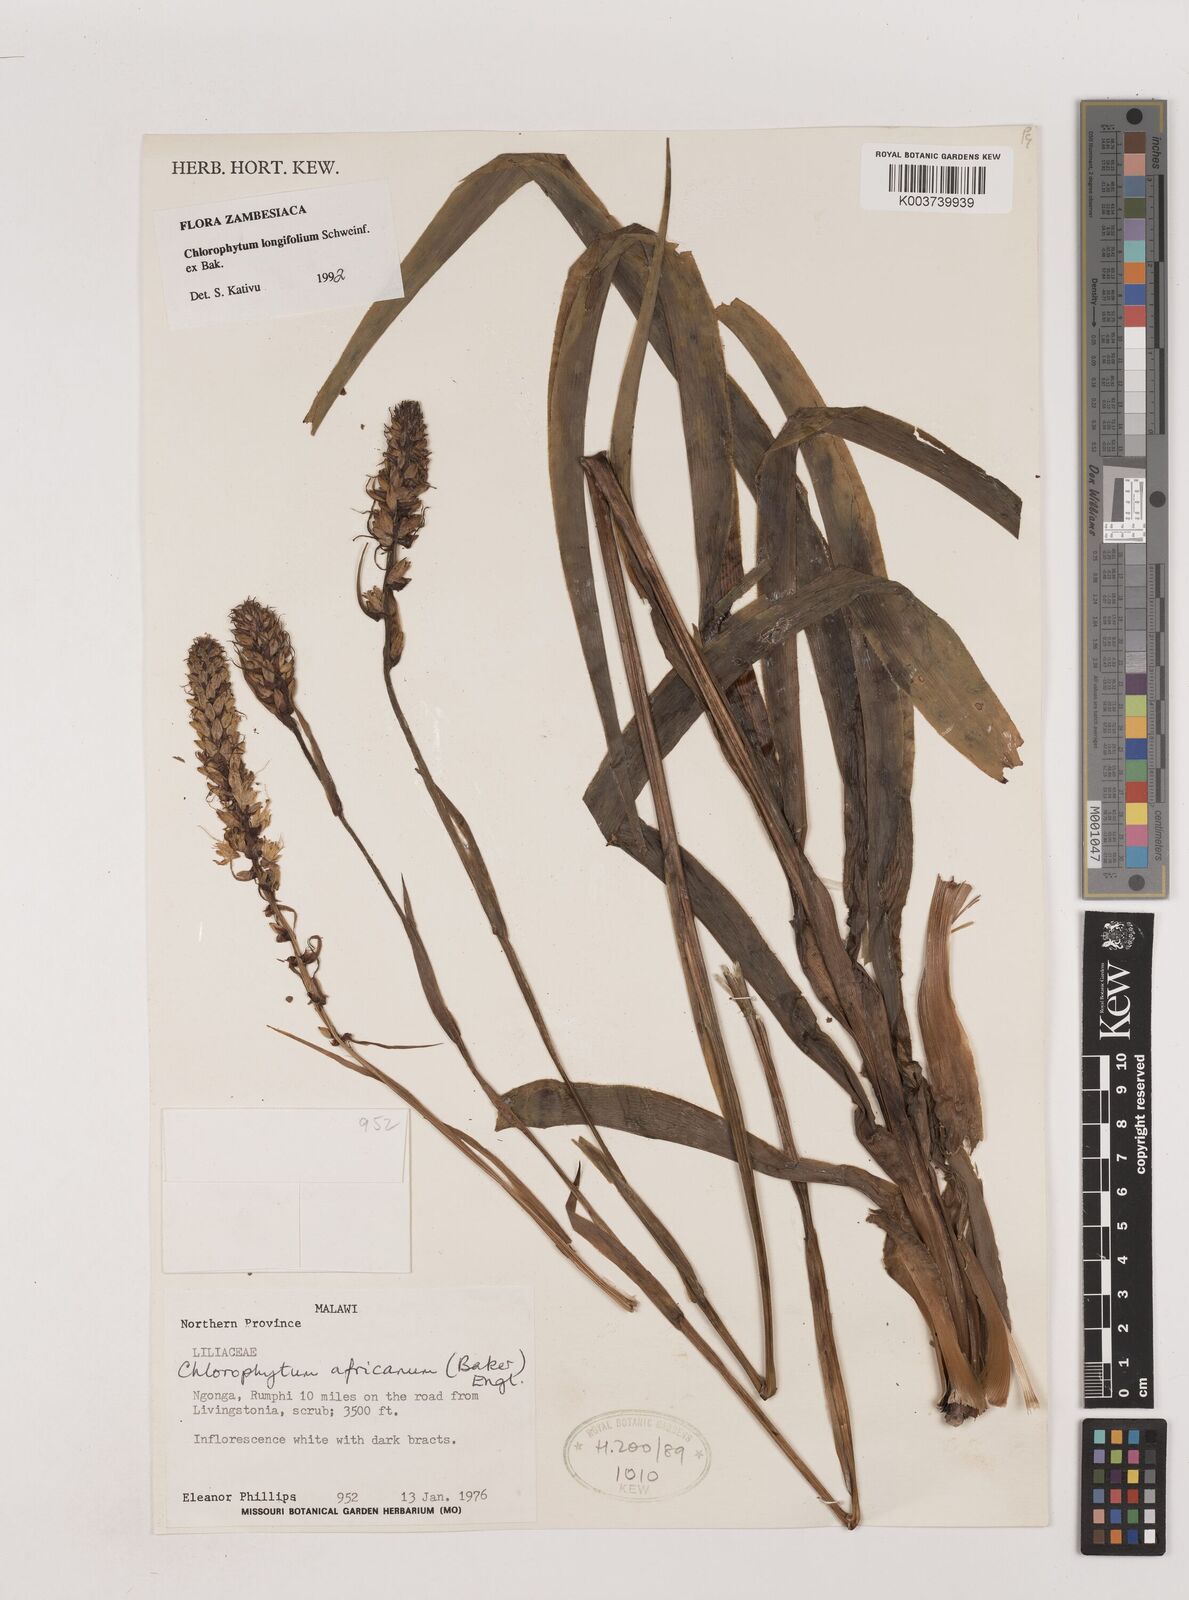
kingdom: Plantae
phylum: Tracheophyta
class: Liliopsida
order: Asparagales
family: Asparagaceae
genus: Chlorophytum
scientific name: Chlorophytum longifolium
